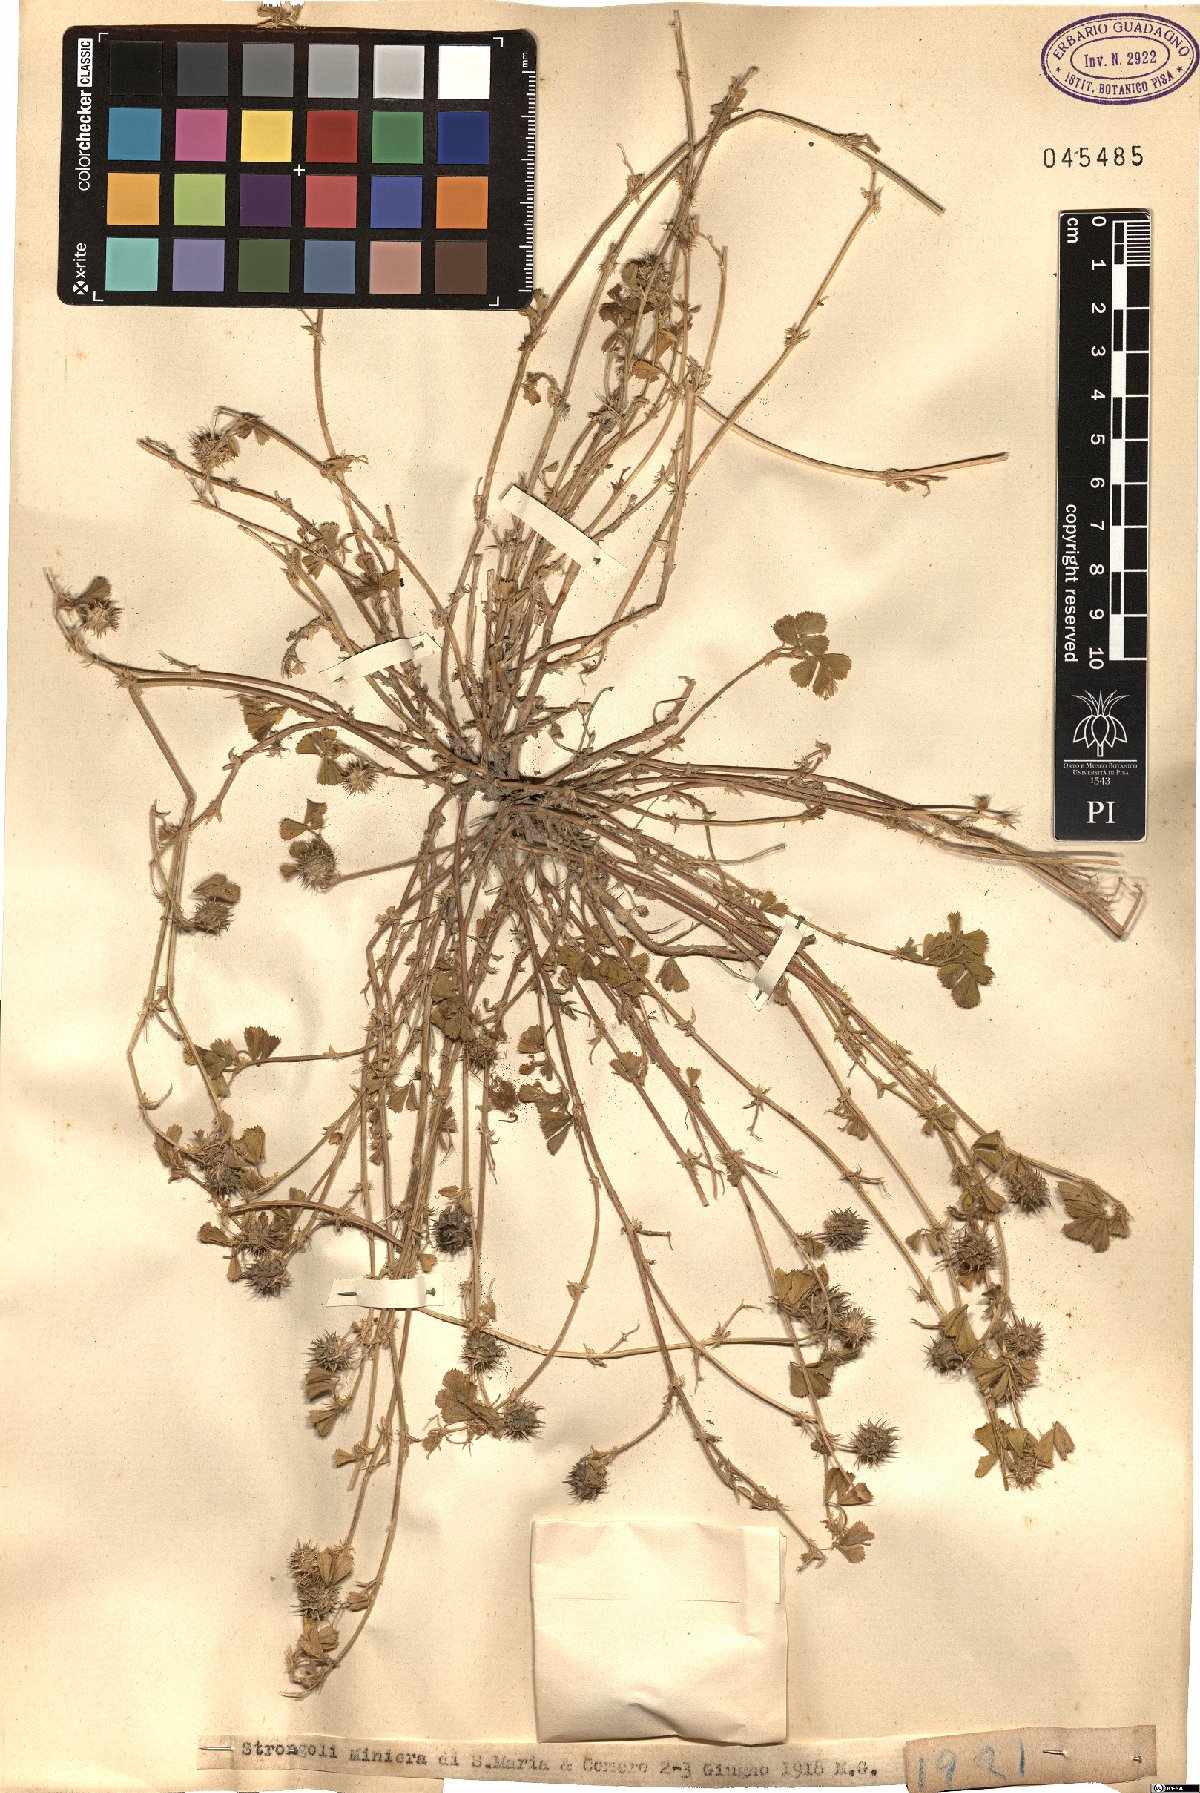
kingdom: Plantae
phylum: Tracheophyta
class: Magnoliopsida
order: Fabales
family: Fabaceae
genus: Medicago
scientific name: Medicago
